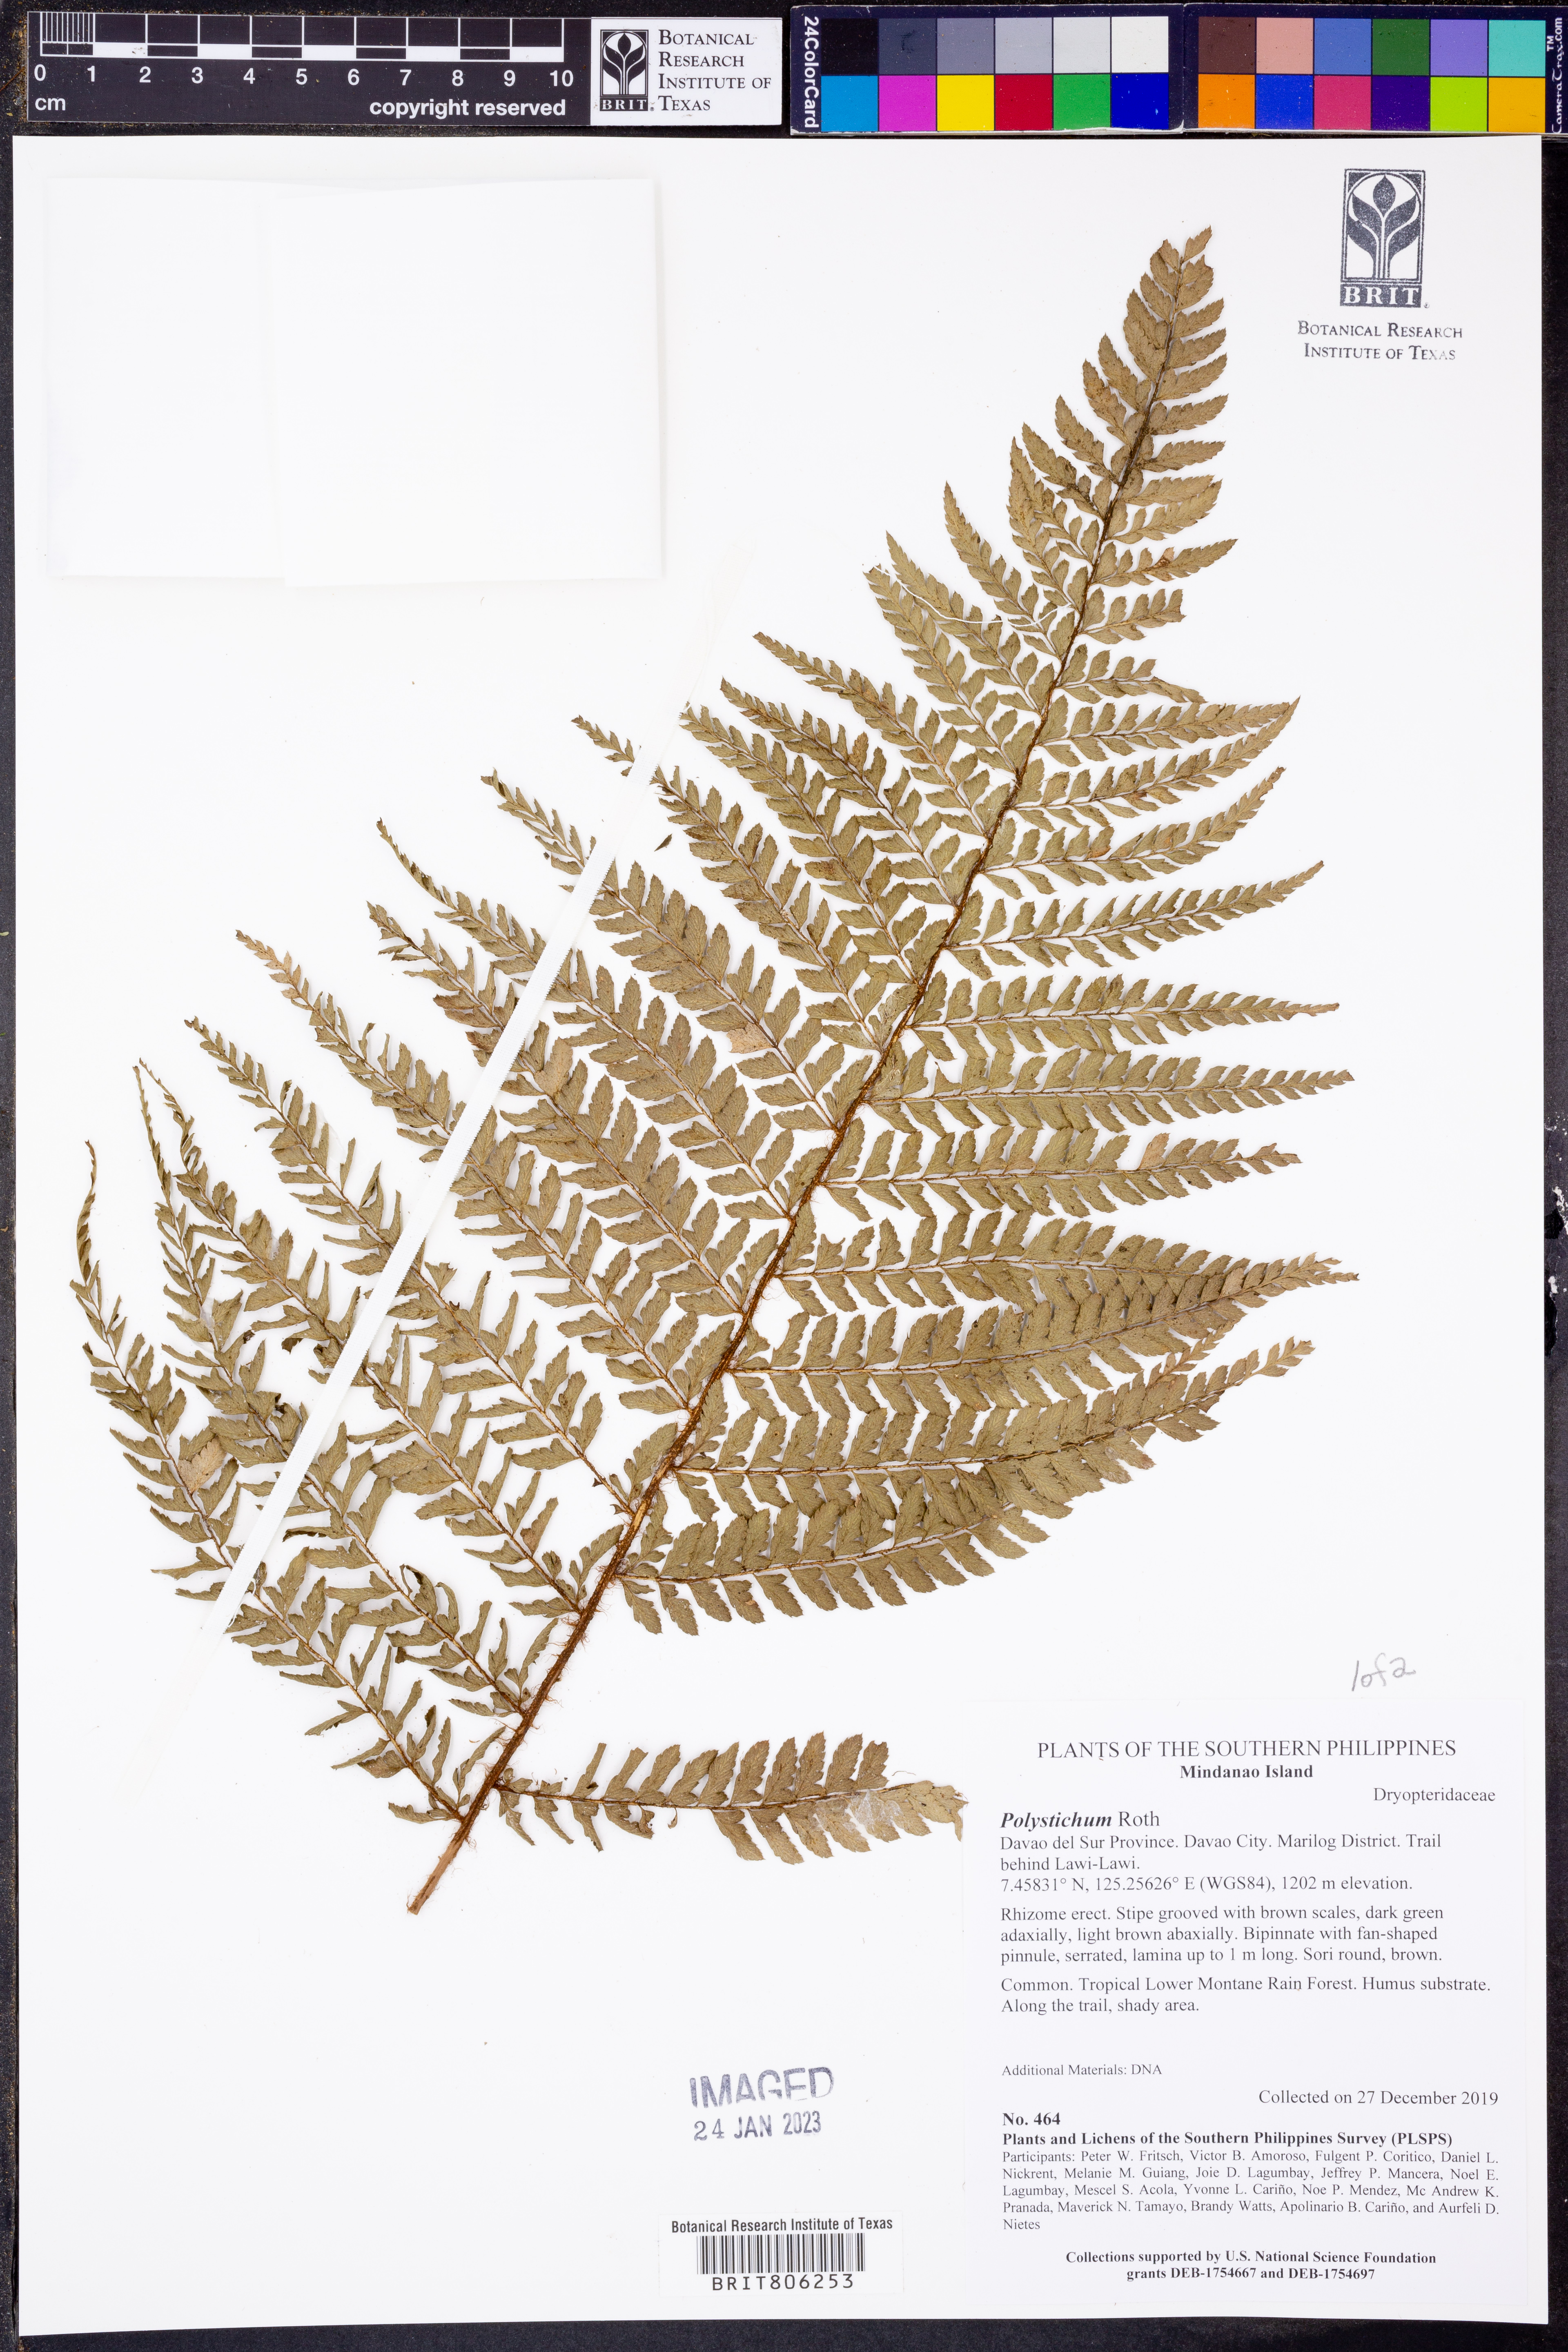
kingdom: Plantae
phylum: Tracheophyta
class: Polypodiopsida
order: Polypodiales
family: Dryopteridaceae
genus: Polystichum
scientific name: Polystichum
